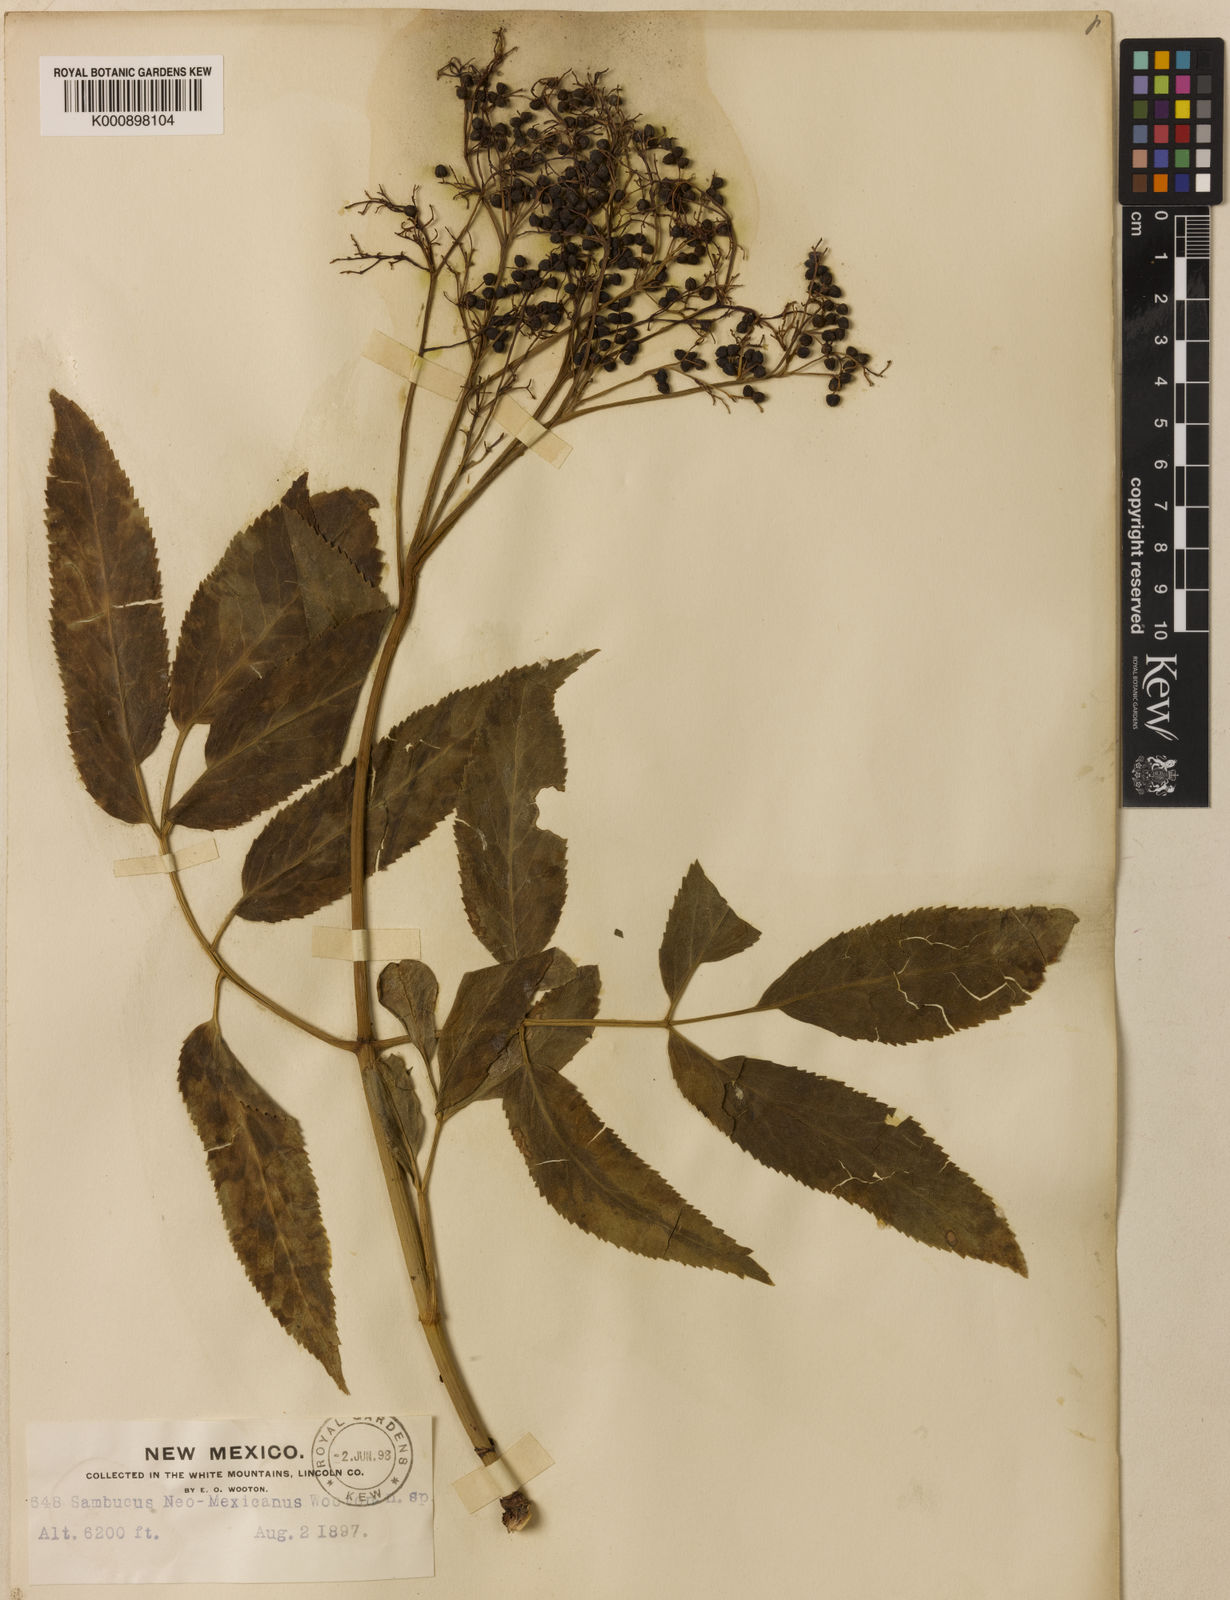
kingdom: Plantae
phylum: Tracheophyta
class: Magnoliopsida
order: Dipsacales
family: Viburnaceae
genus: Sambucus
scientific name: Sambucus
